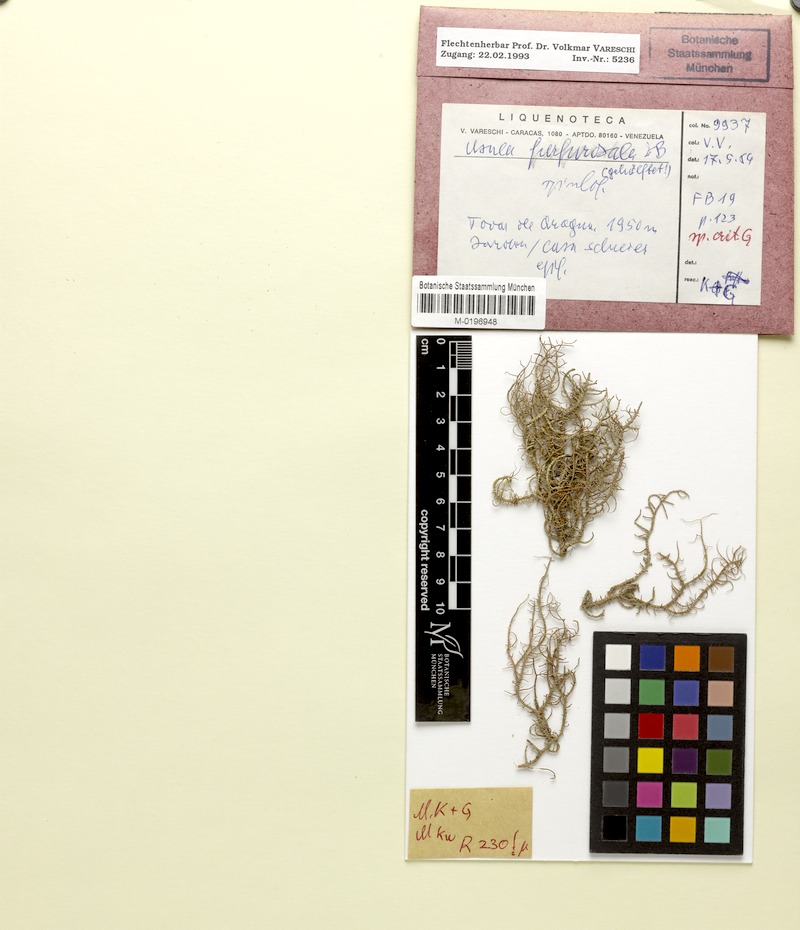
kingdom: Fungi
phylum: Ascomycota
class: Lecanoromycetes
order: Lecanorales
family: Parmeliaceae
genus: Usnea
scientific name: Usnea furfurosula
